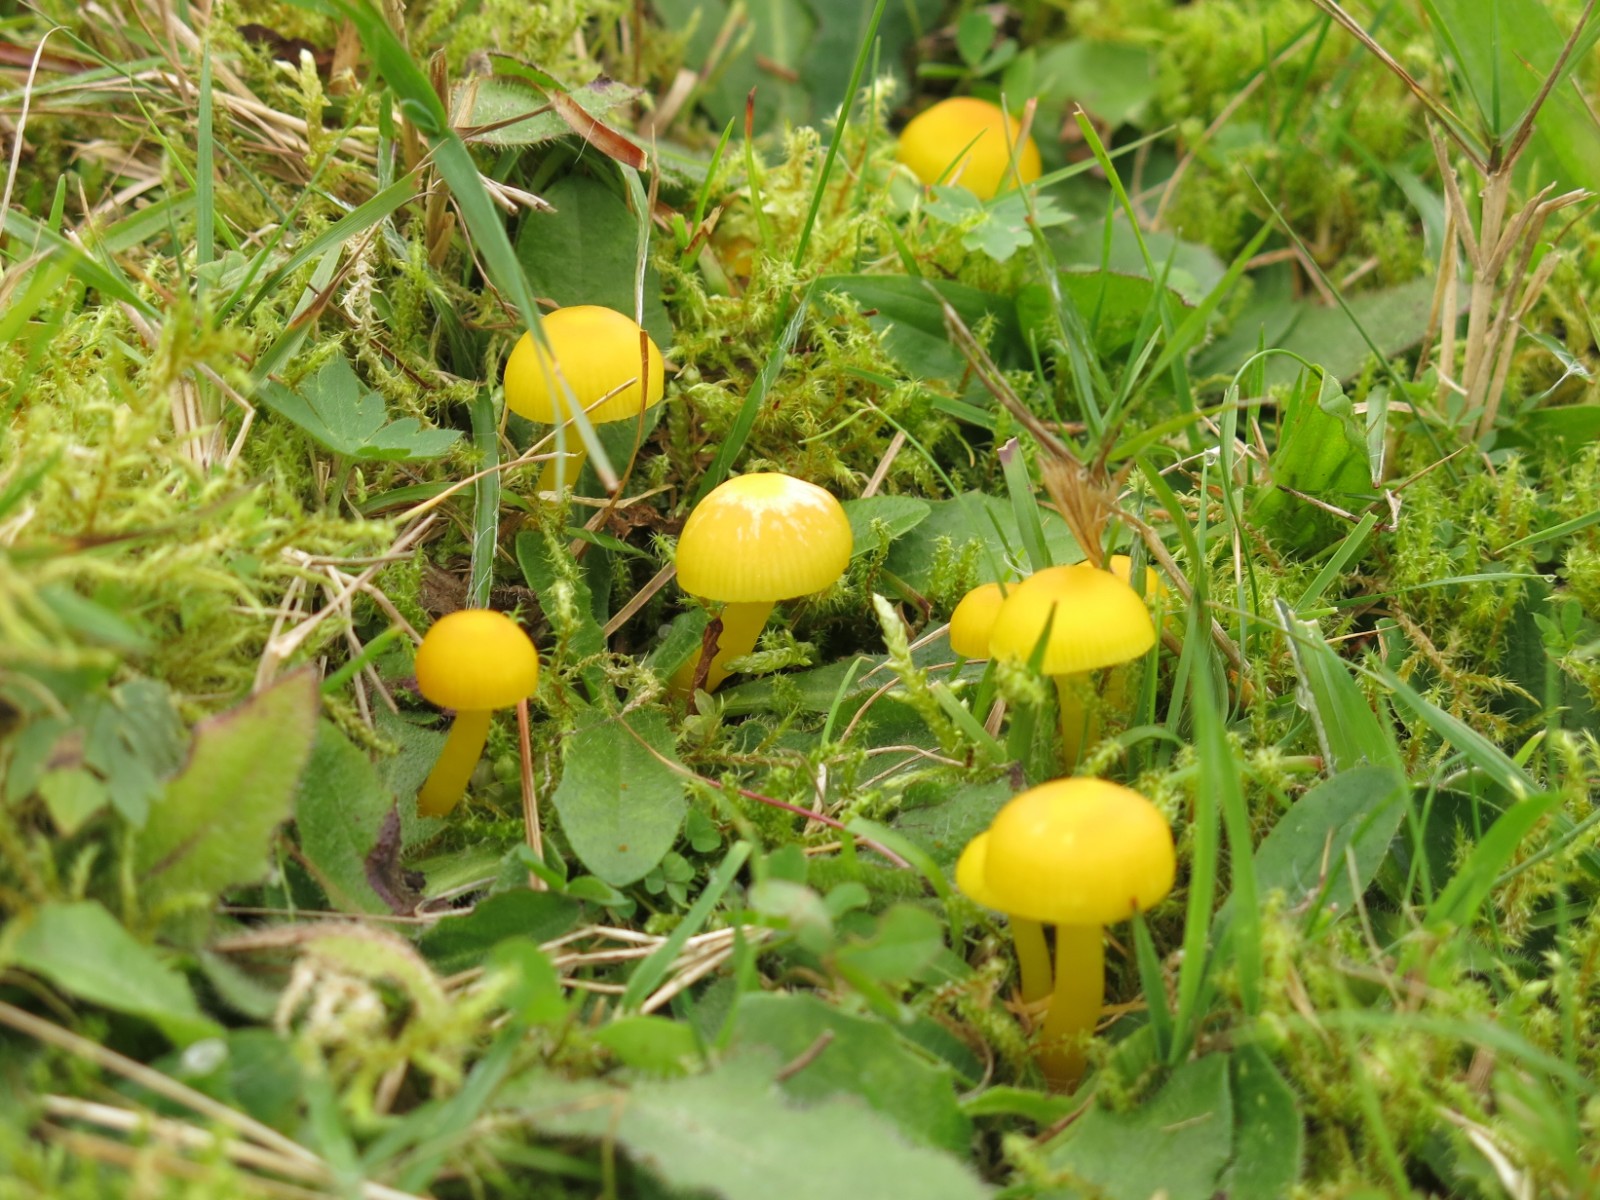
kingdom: Fungi
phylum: Basidiomycota
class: Agaricomycetes
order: Agaricales
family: Hygrophoraceae
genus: Hygrocybe
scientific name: Hygrocybe ceracea
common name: voksgul vokshat
